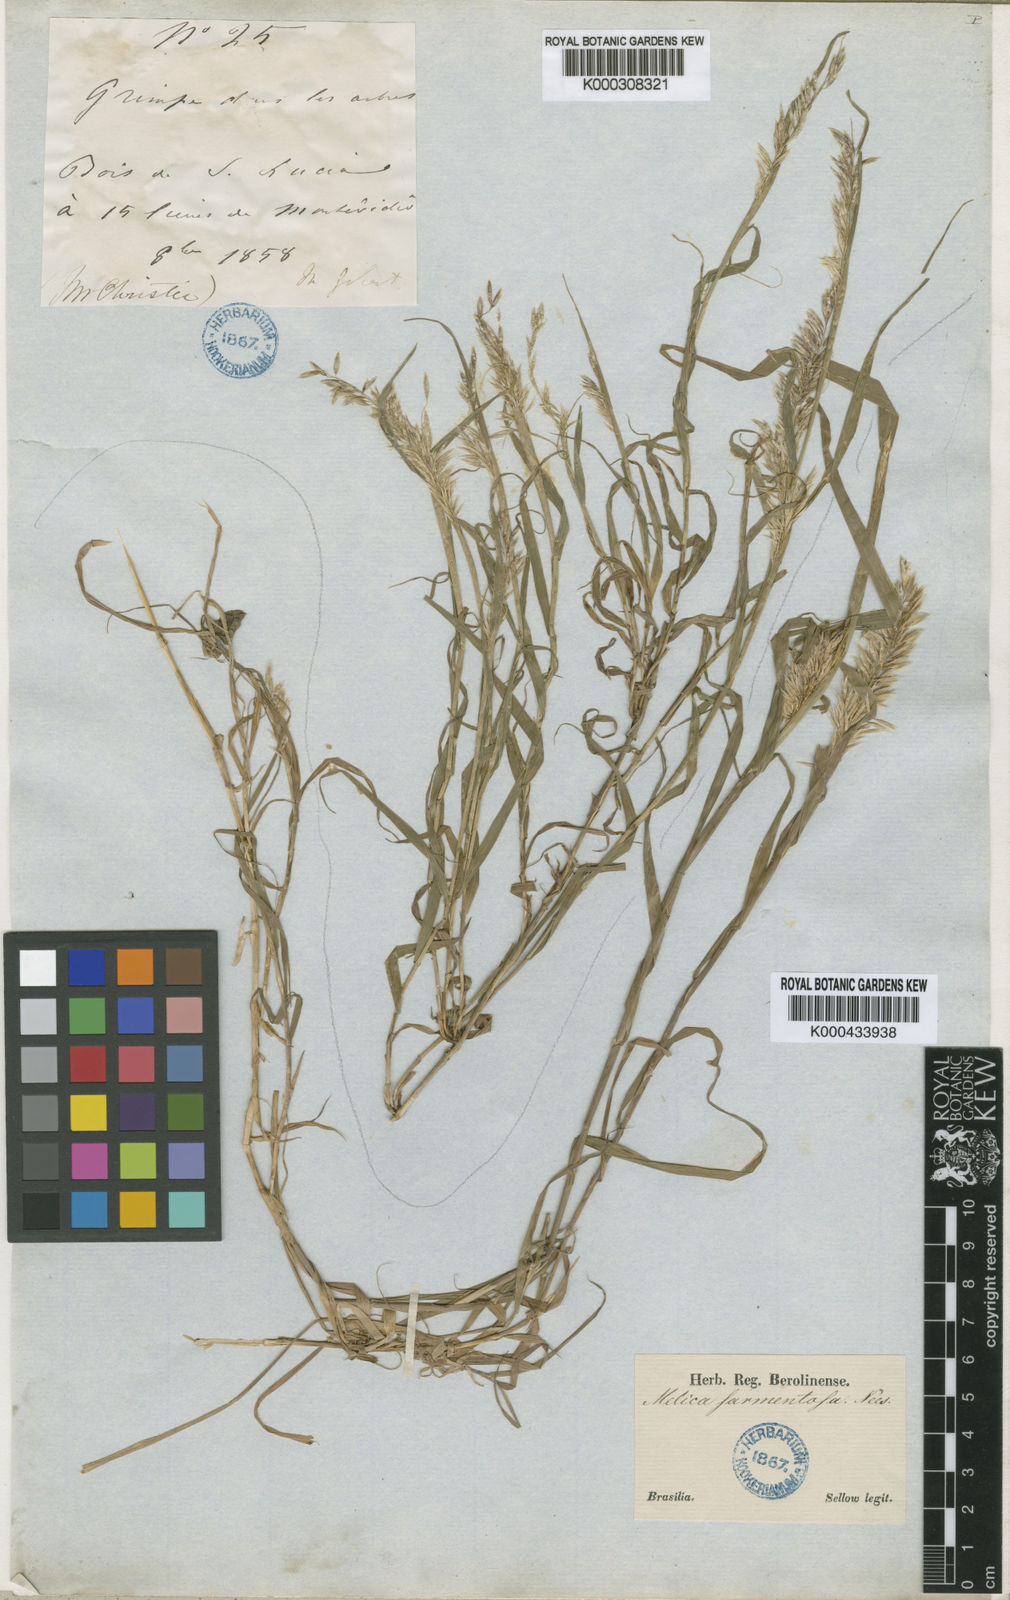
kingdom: Plantae
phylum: Tracheophyta
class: Liliopsida
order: Poales
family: Poaceae
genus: Melica
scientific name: Melica sarmentosa
